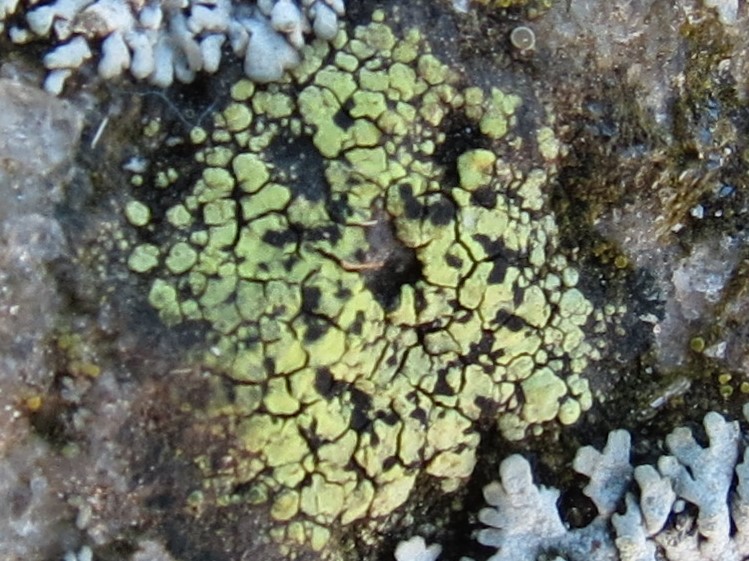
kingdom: Fungi
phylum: Ascomycota
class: Lecanoromycetes
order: Rhizocarpales
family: Rhizocarpaceae
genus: Rhizocarpon
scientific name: Rhizocarpon lecanorinum
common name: krave-landkortlav
